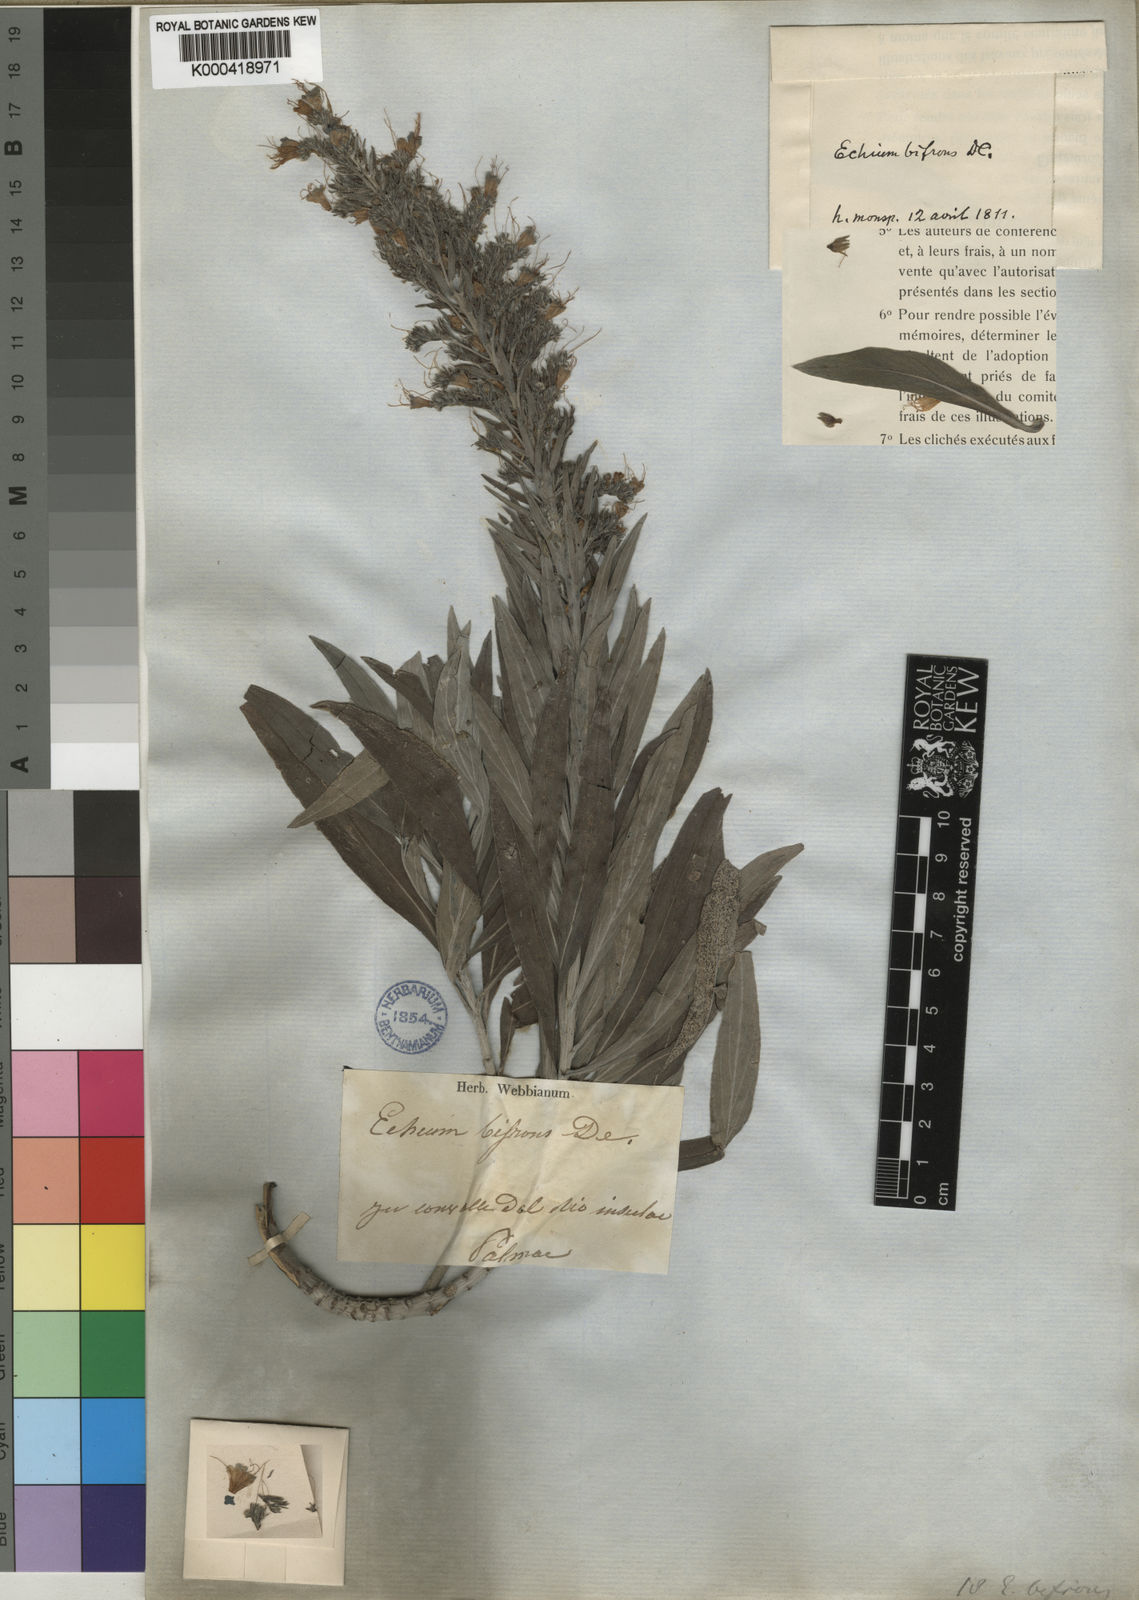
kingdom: Plantae
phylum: Tracheophyta
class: Magnoliopsida
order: Boraginales
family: Boraginaceae
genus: Echium
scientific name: Echium webbii
